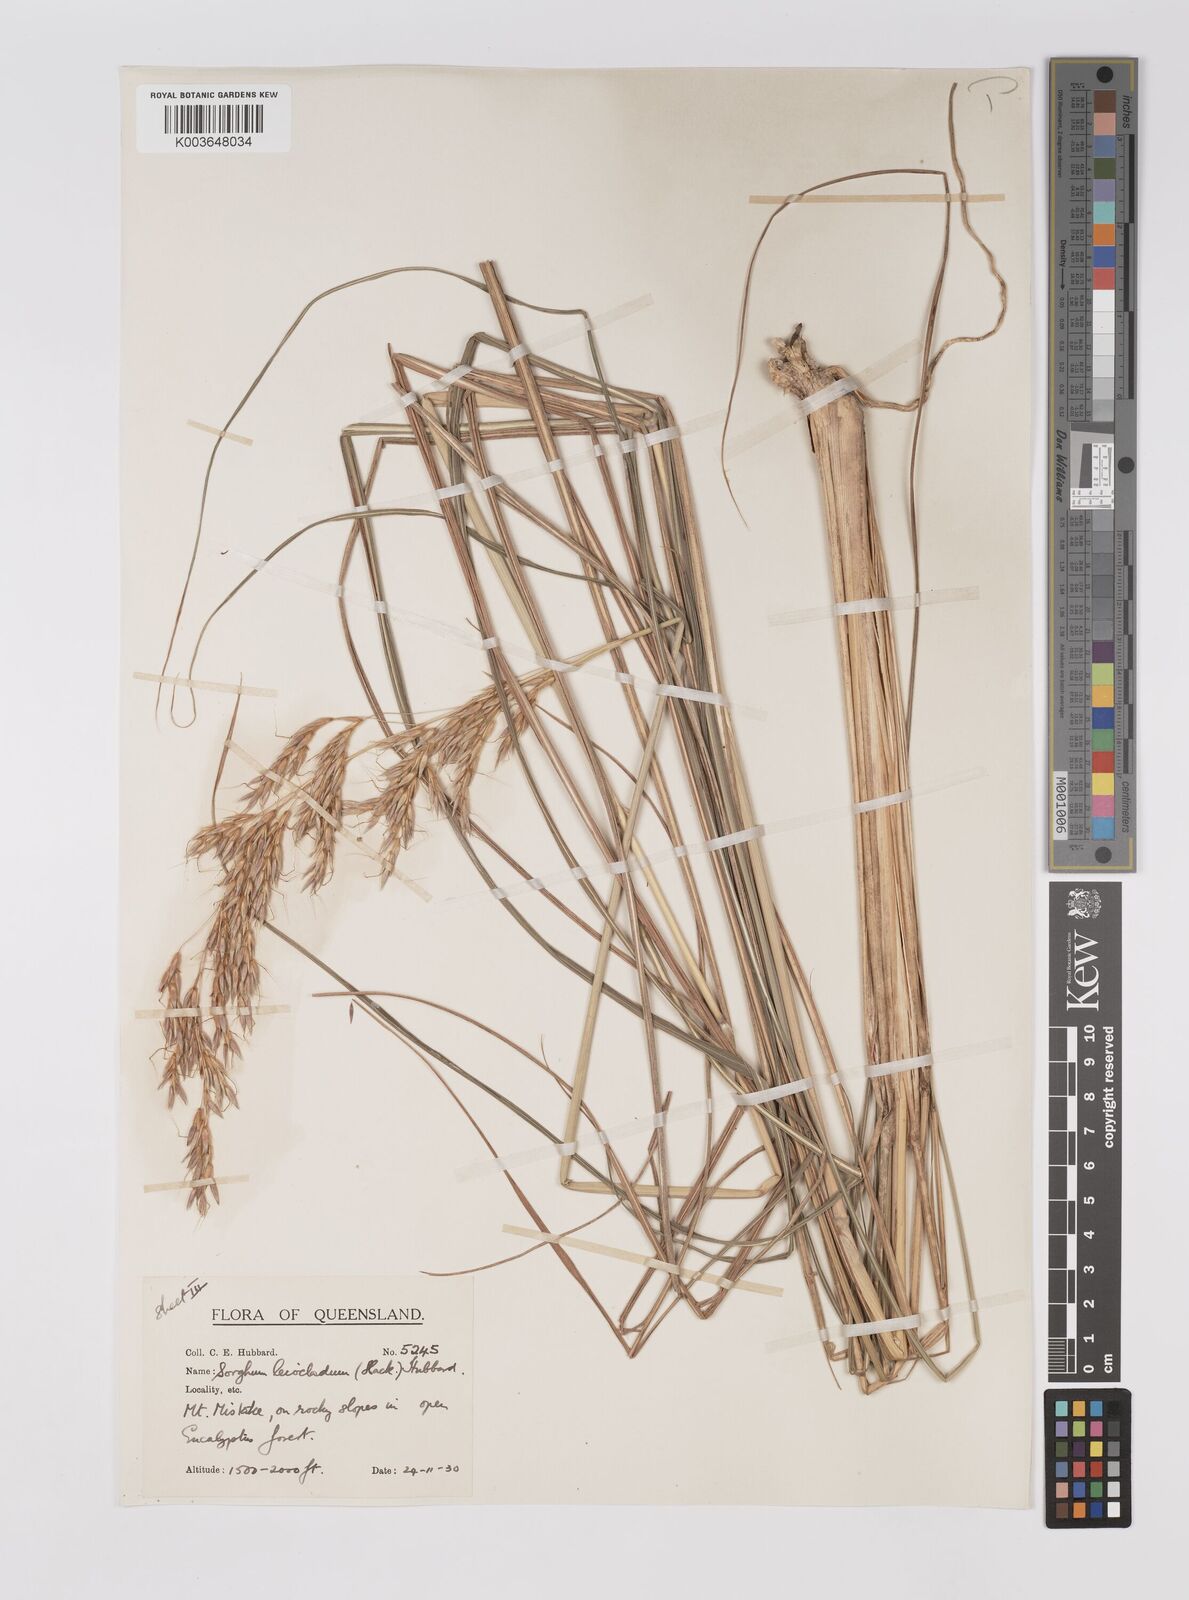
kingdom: Plantae
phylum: Tracheophyta
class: Liliopsida
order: Poales
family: Poaceae
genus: Sarga
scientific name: Sarga leioclada
